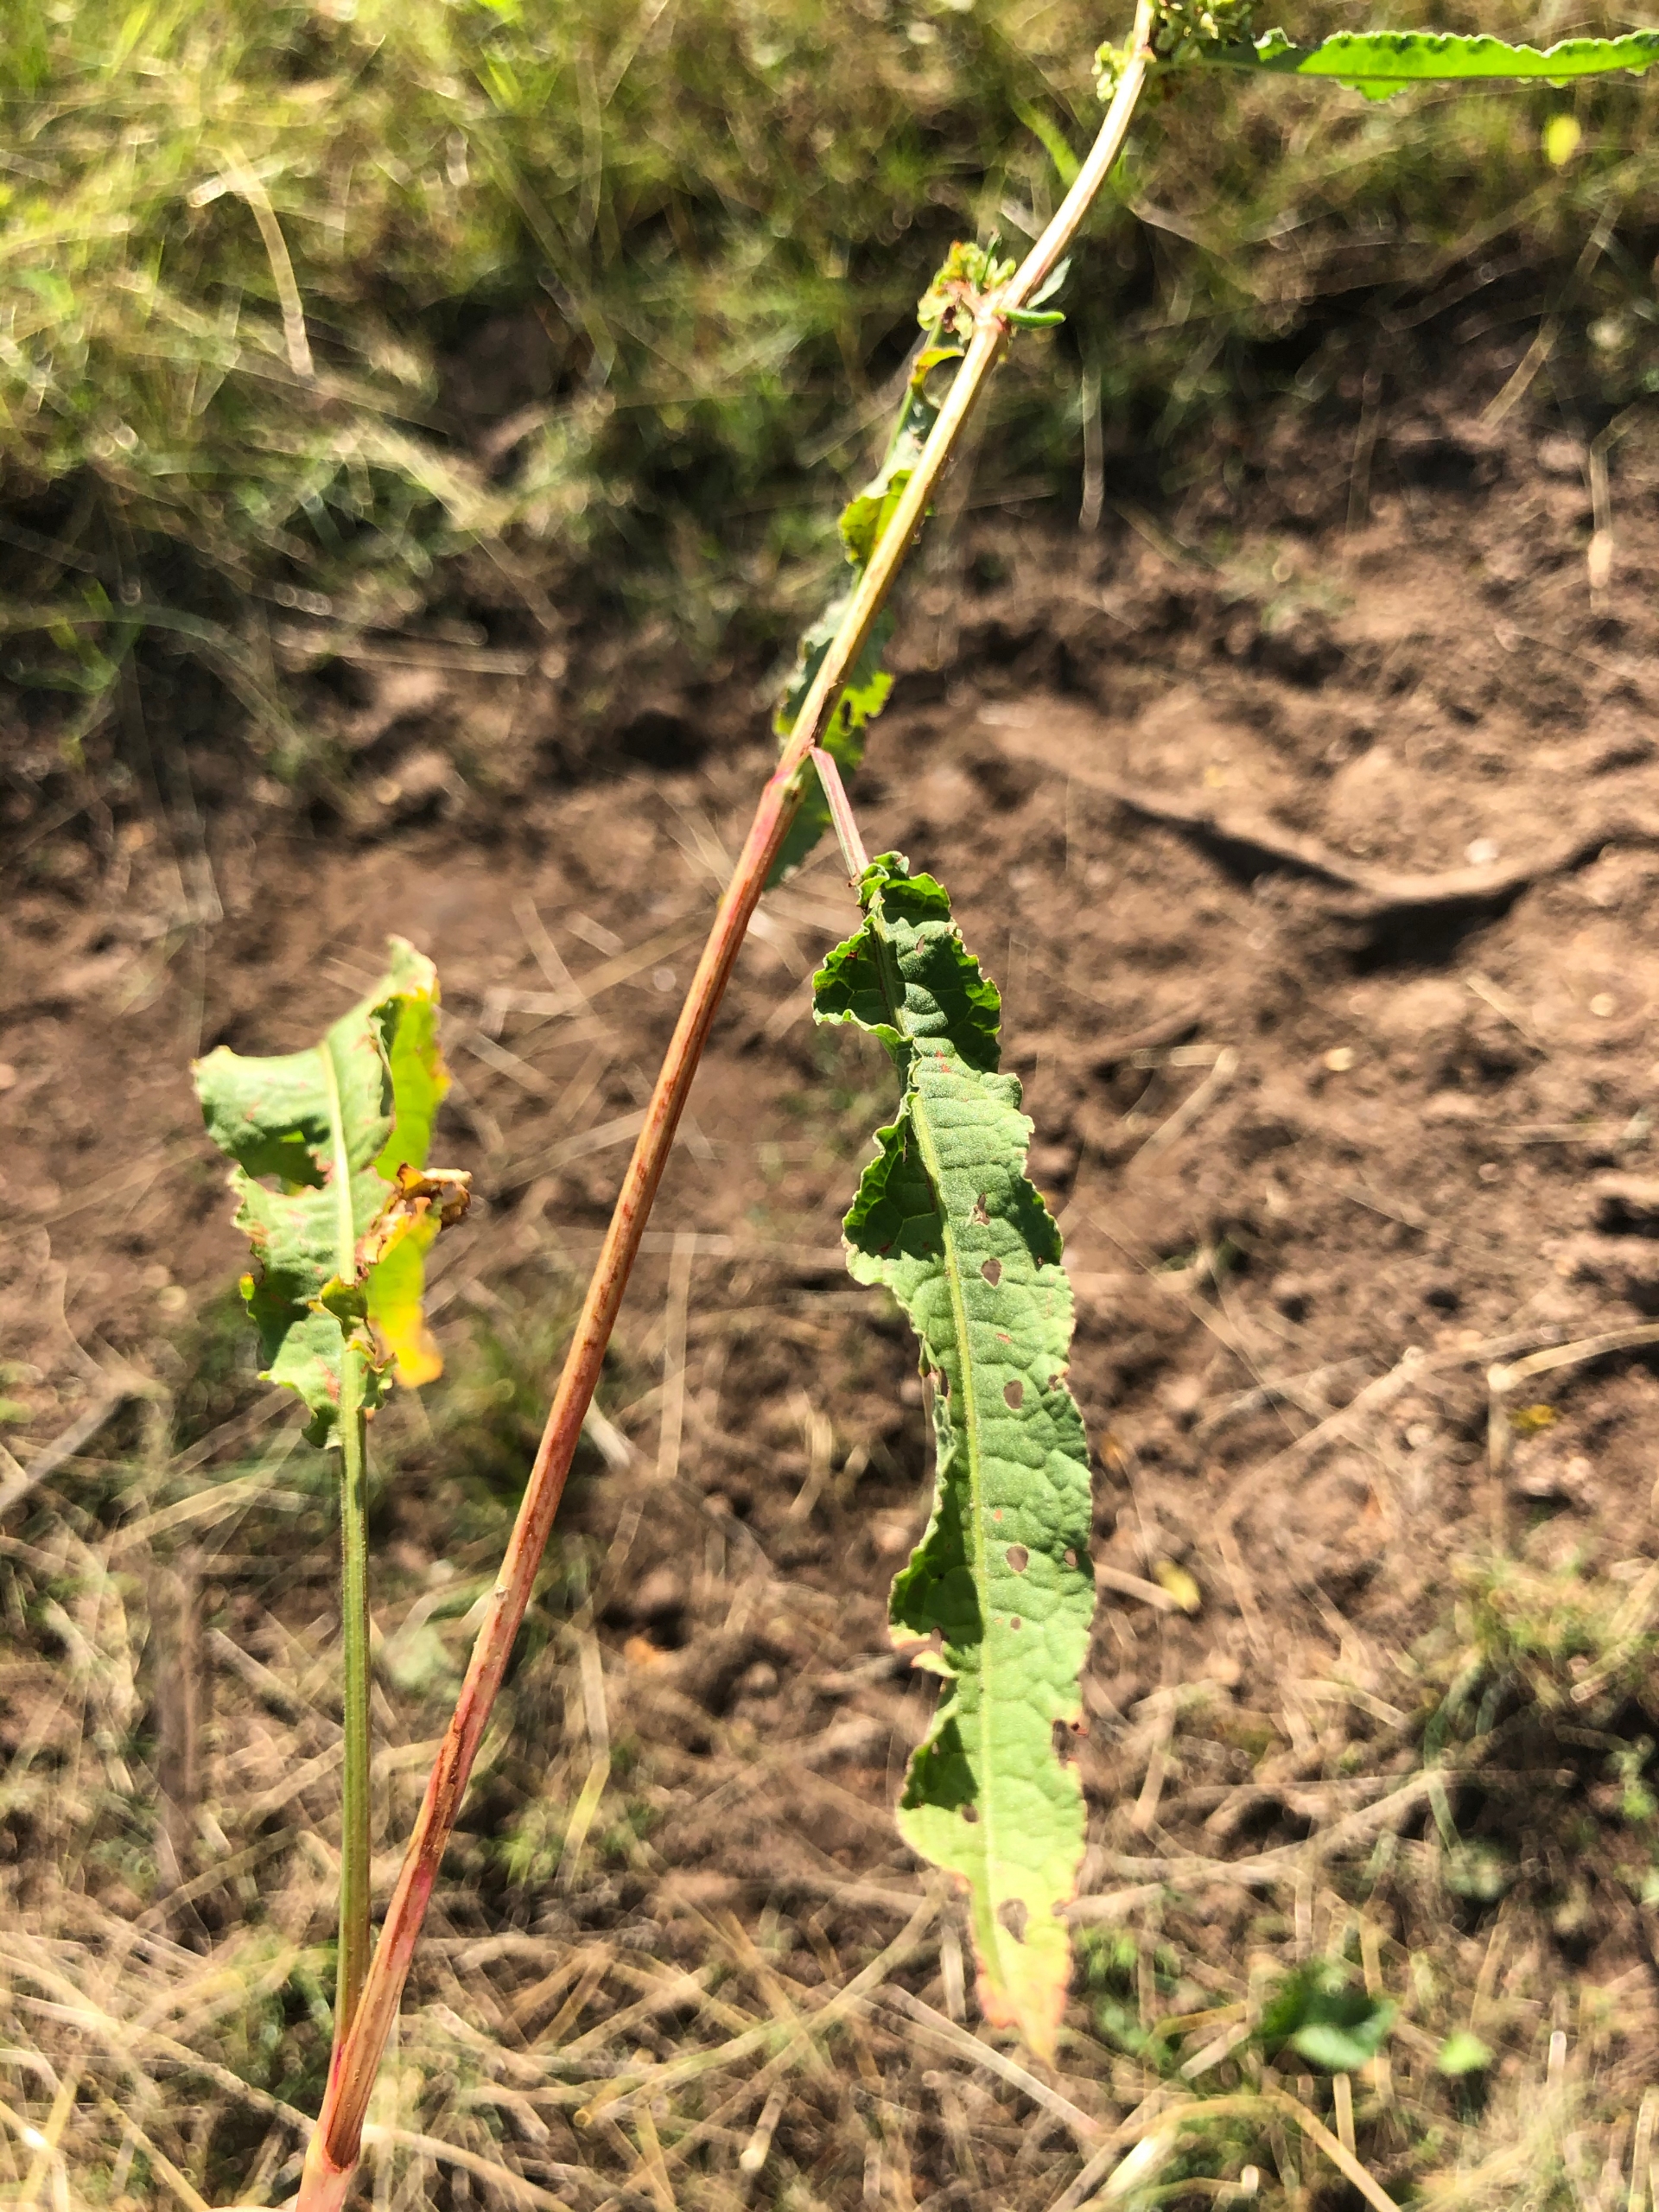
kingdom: Plantae
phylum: Tracheophyta
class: Magnoliopsida
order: Caryophyllales
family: Polygonaceae
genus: Rumex
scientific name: Rumex crispus
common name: Kruset skræppe
